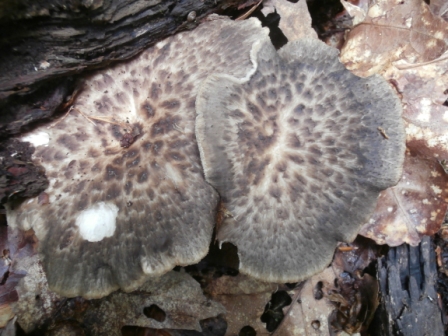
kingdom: Fungi
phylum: Basidiomycota
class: Agaricomycetes
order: Polyporales
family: Polyporaceae
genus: Polyporus
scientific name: Polyporus tuberaster
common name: knoldet stilkporesvamp
